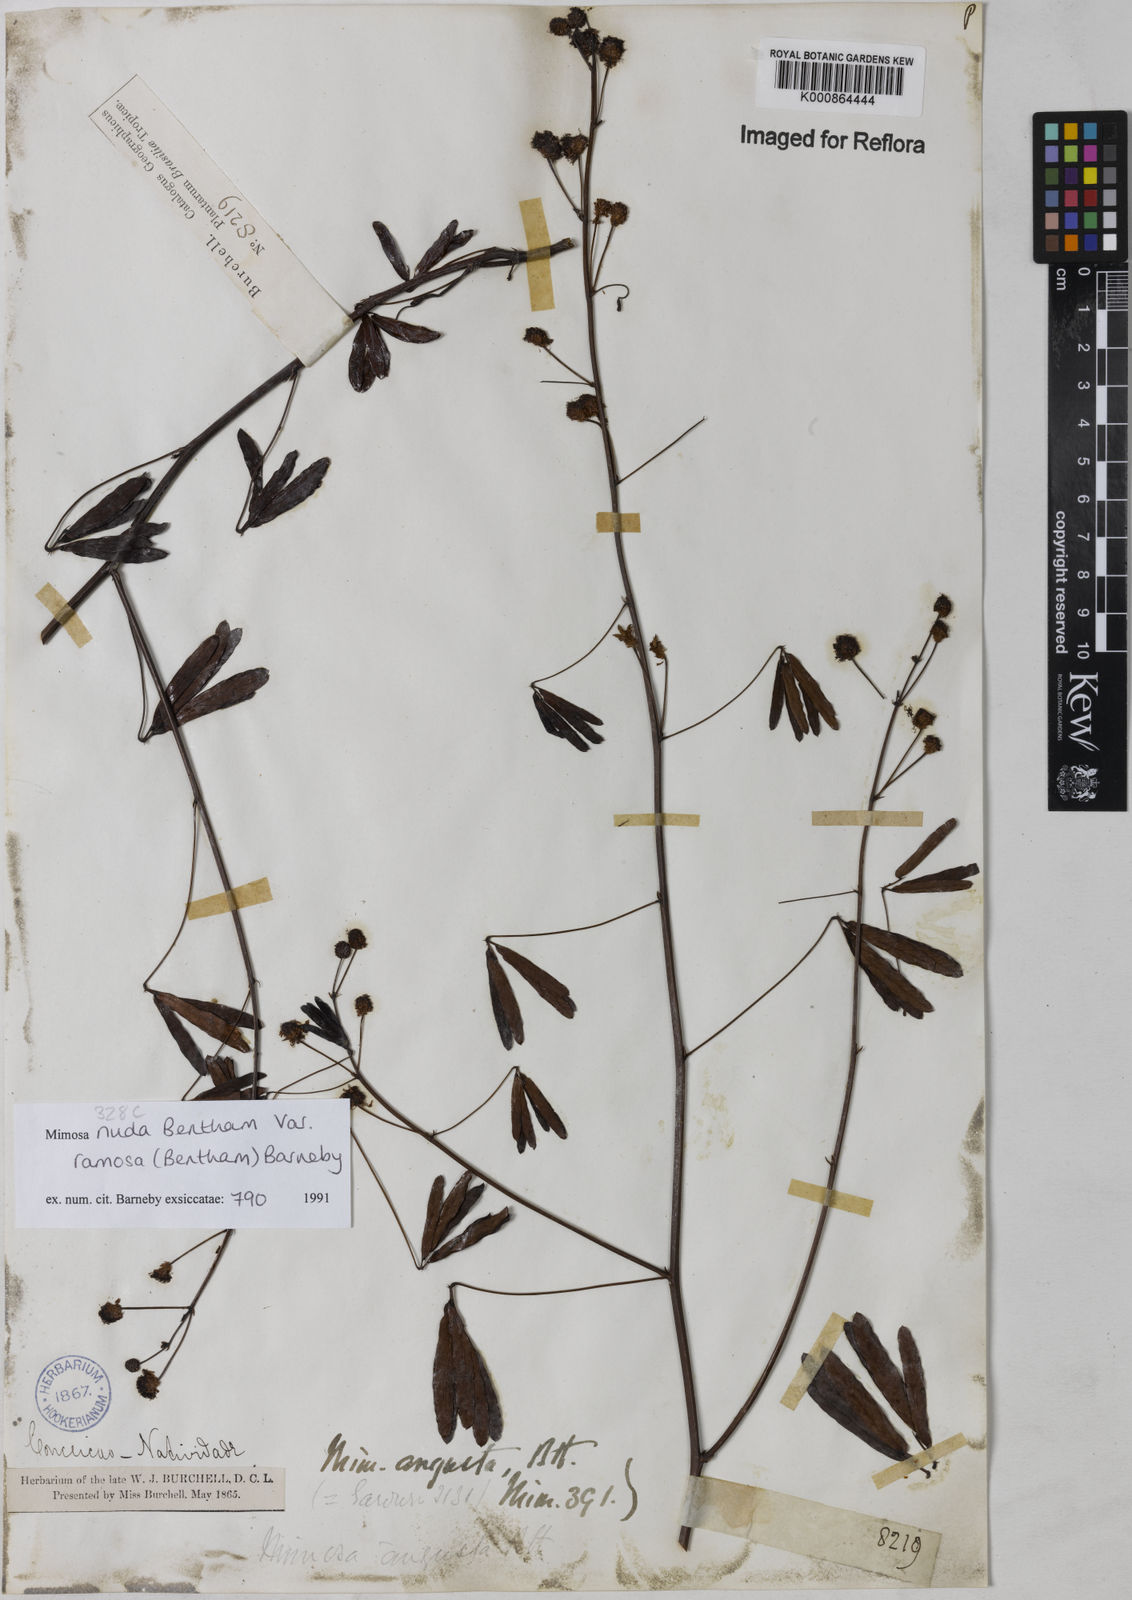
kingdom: Plantae
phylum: Tracheophyta
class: Magnoliopsida
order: Fabales
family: Fabaceae
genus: Mimosa
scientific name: Mimosa debilis
